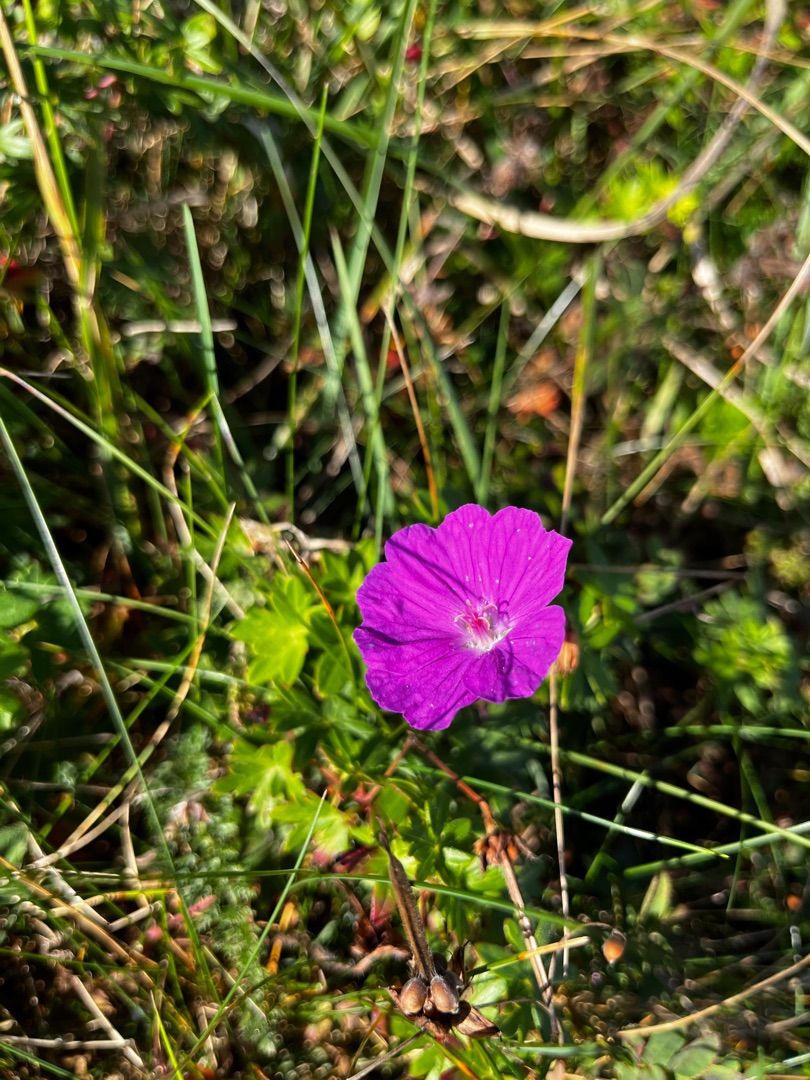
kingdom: Plantae
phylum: Tracheophyta
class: Magnoliopsida
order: Geraniales
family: Geraniaceae
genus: Geranium
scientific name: Geranium sanguineum
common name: Blodrød storkenæb
